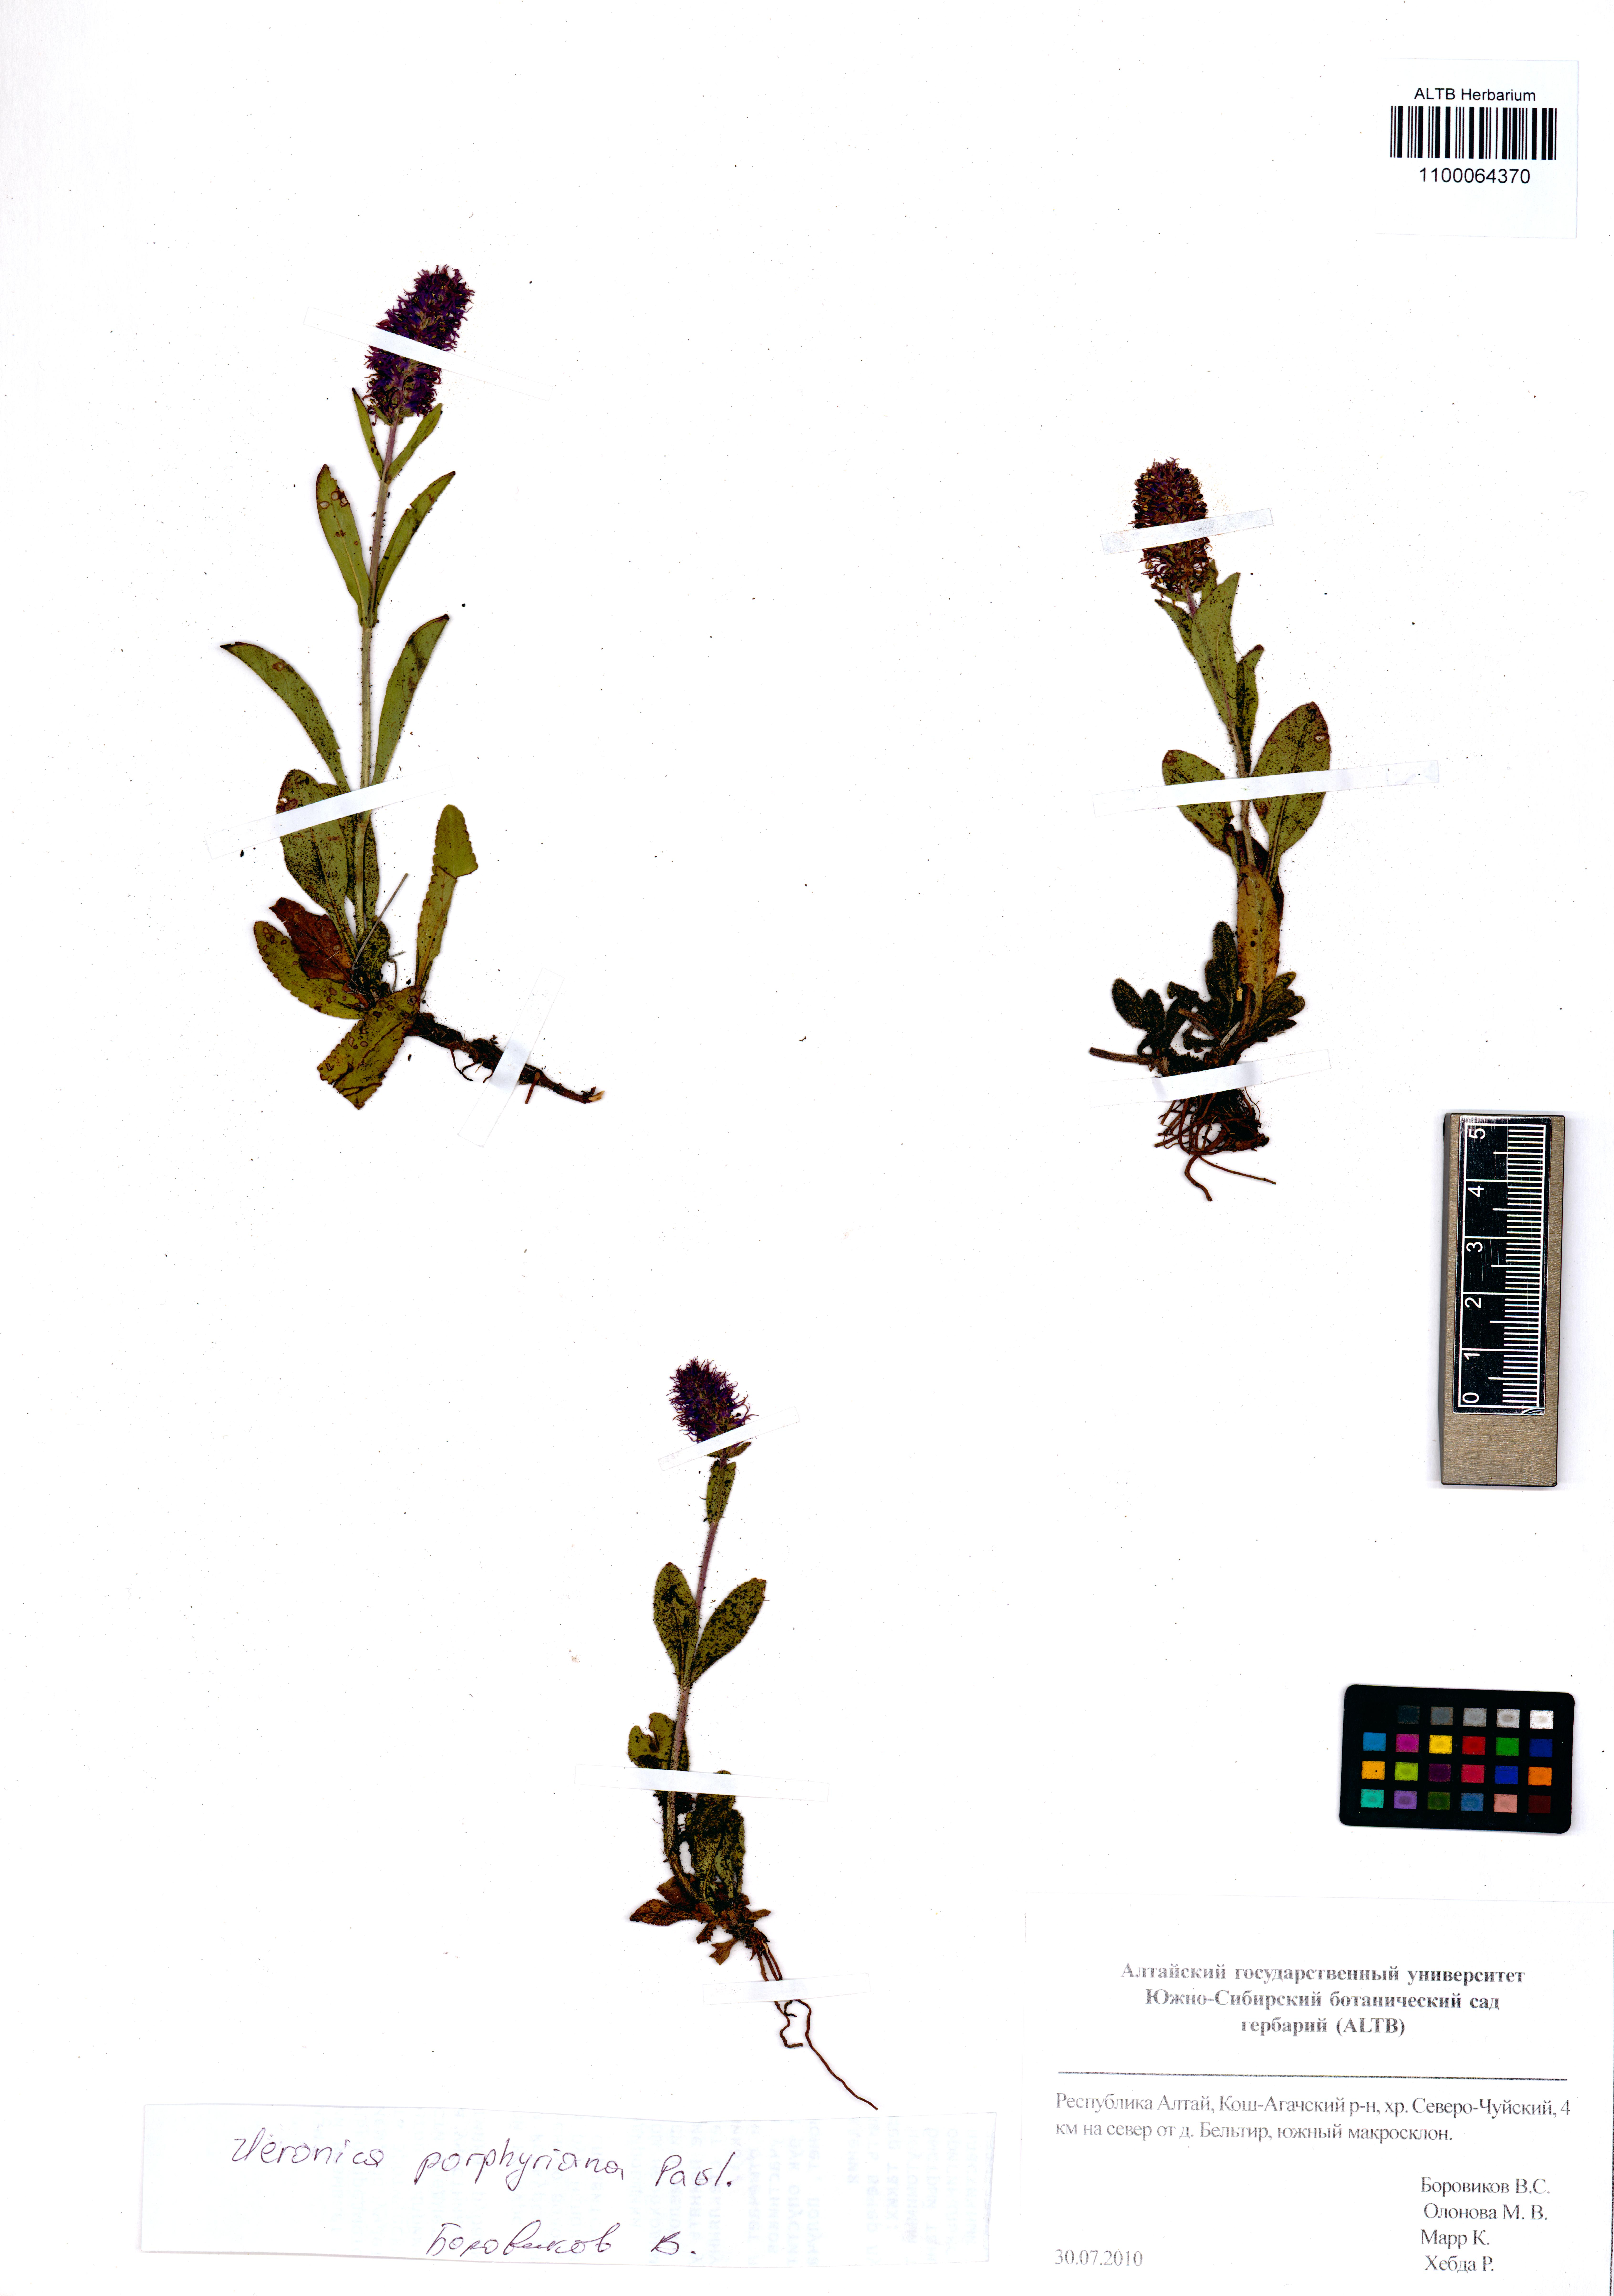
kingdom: Plantae
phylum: Tracheophyta
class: Magnoliopsida
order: Lamiales
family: Plantaginaceae
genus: Veronica
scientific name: Veronica porphyriana
